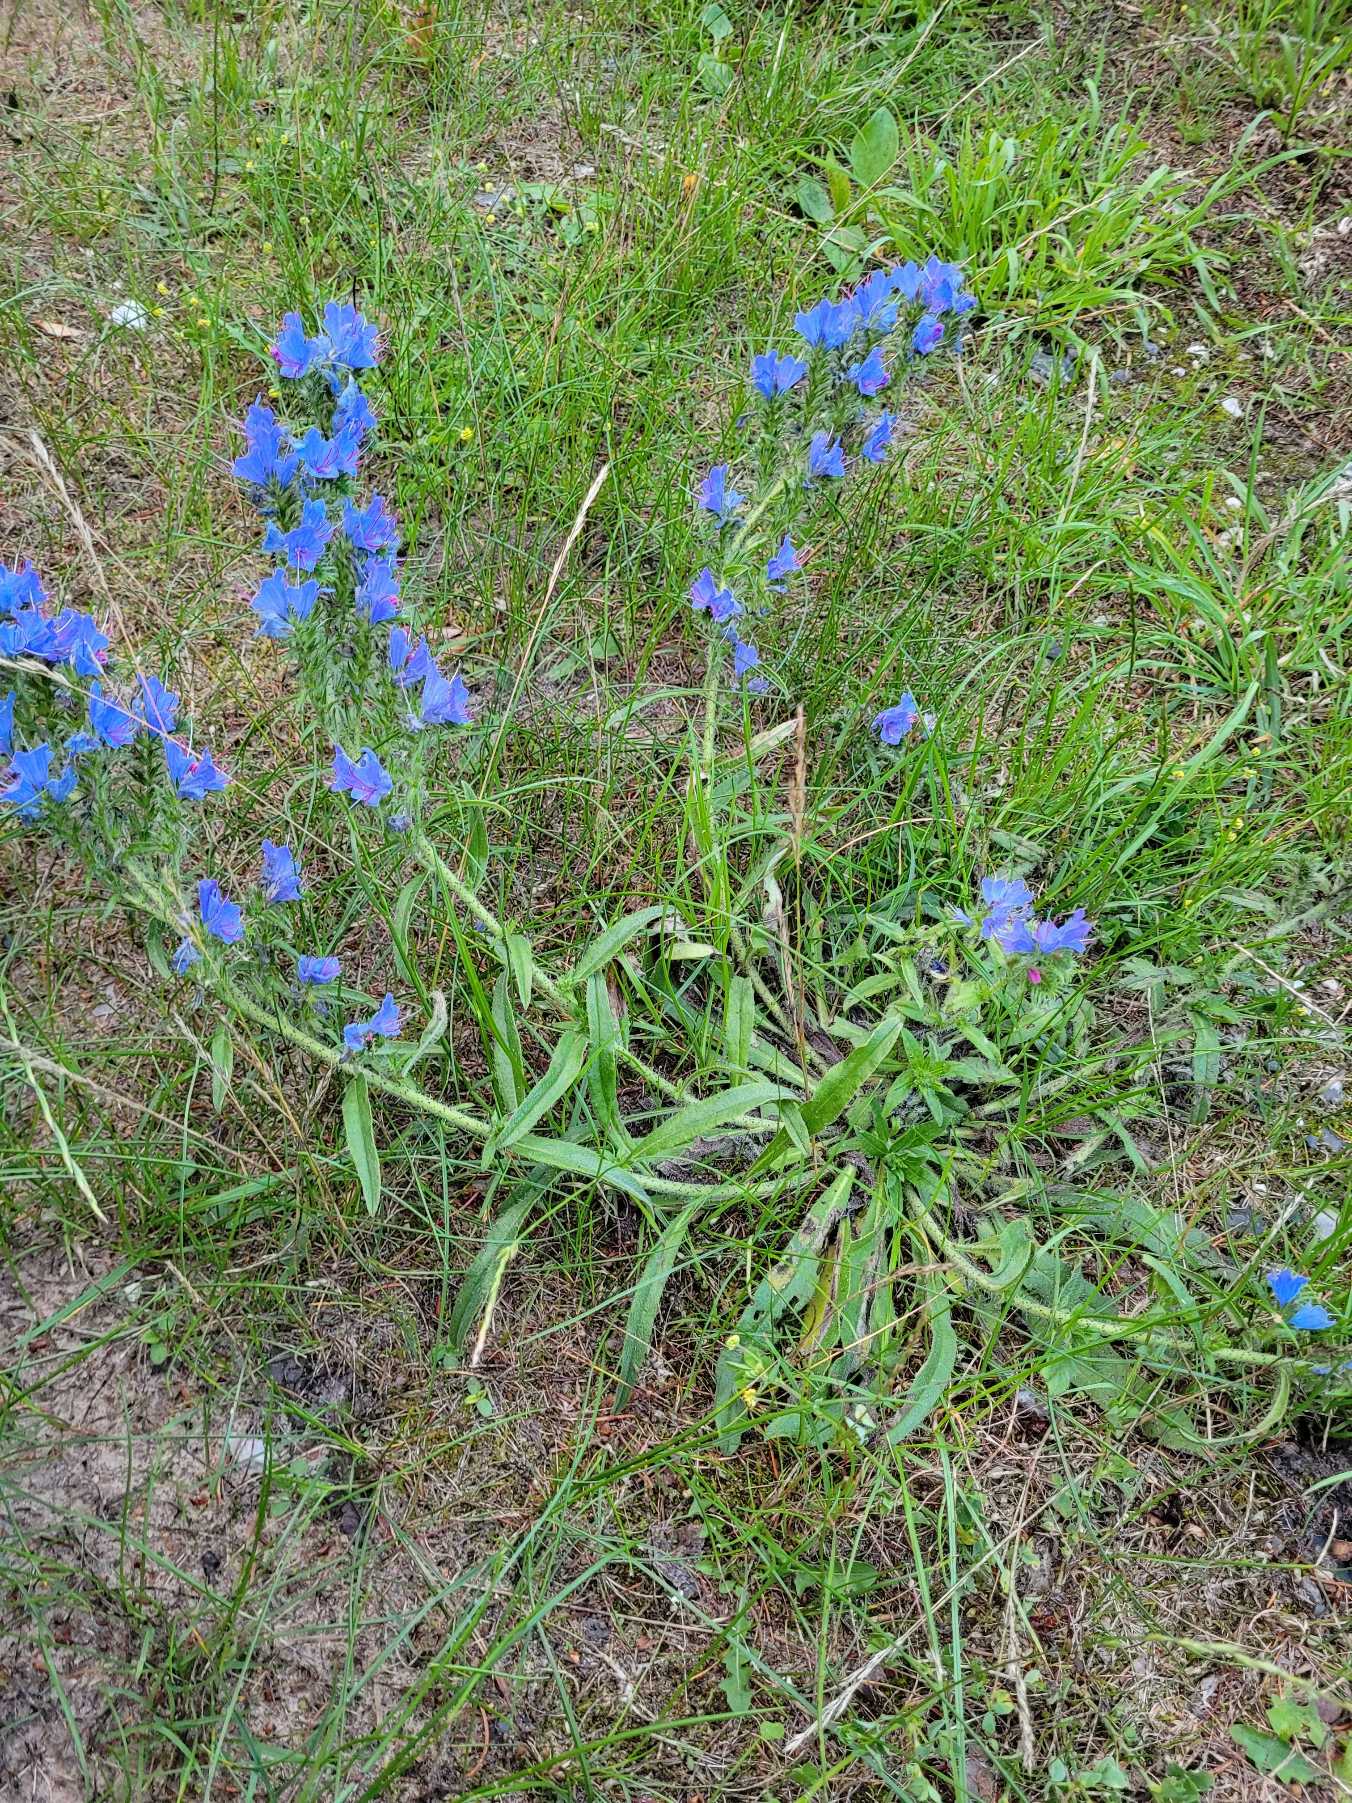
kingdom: Plantae
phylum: Tracheophyta
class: Magnoliopsida
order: Boraginales
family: Boraginaceae
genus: Echium
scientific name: Echium vulgare
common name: Slangehoved
